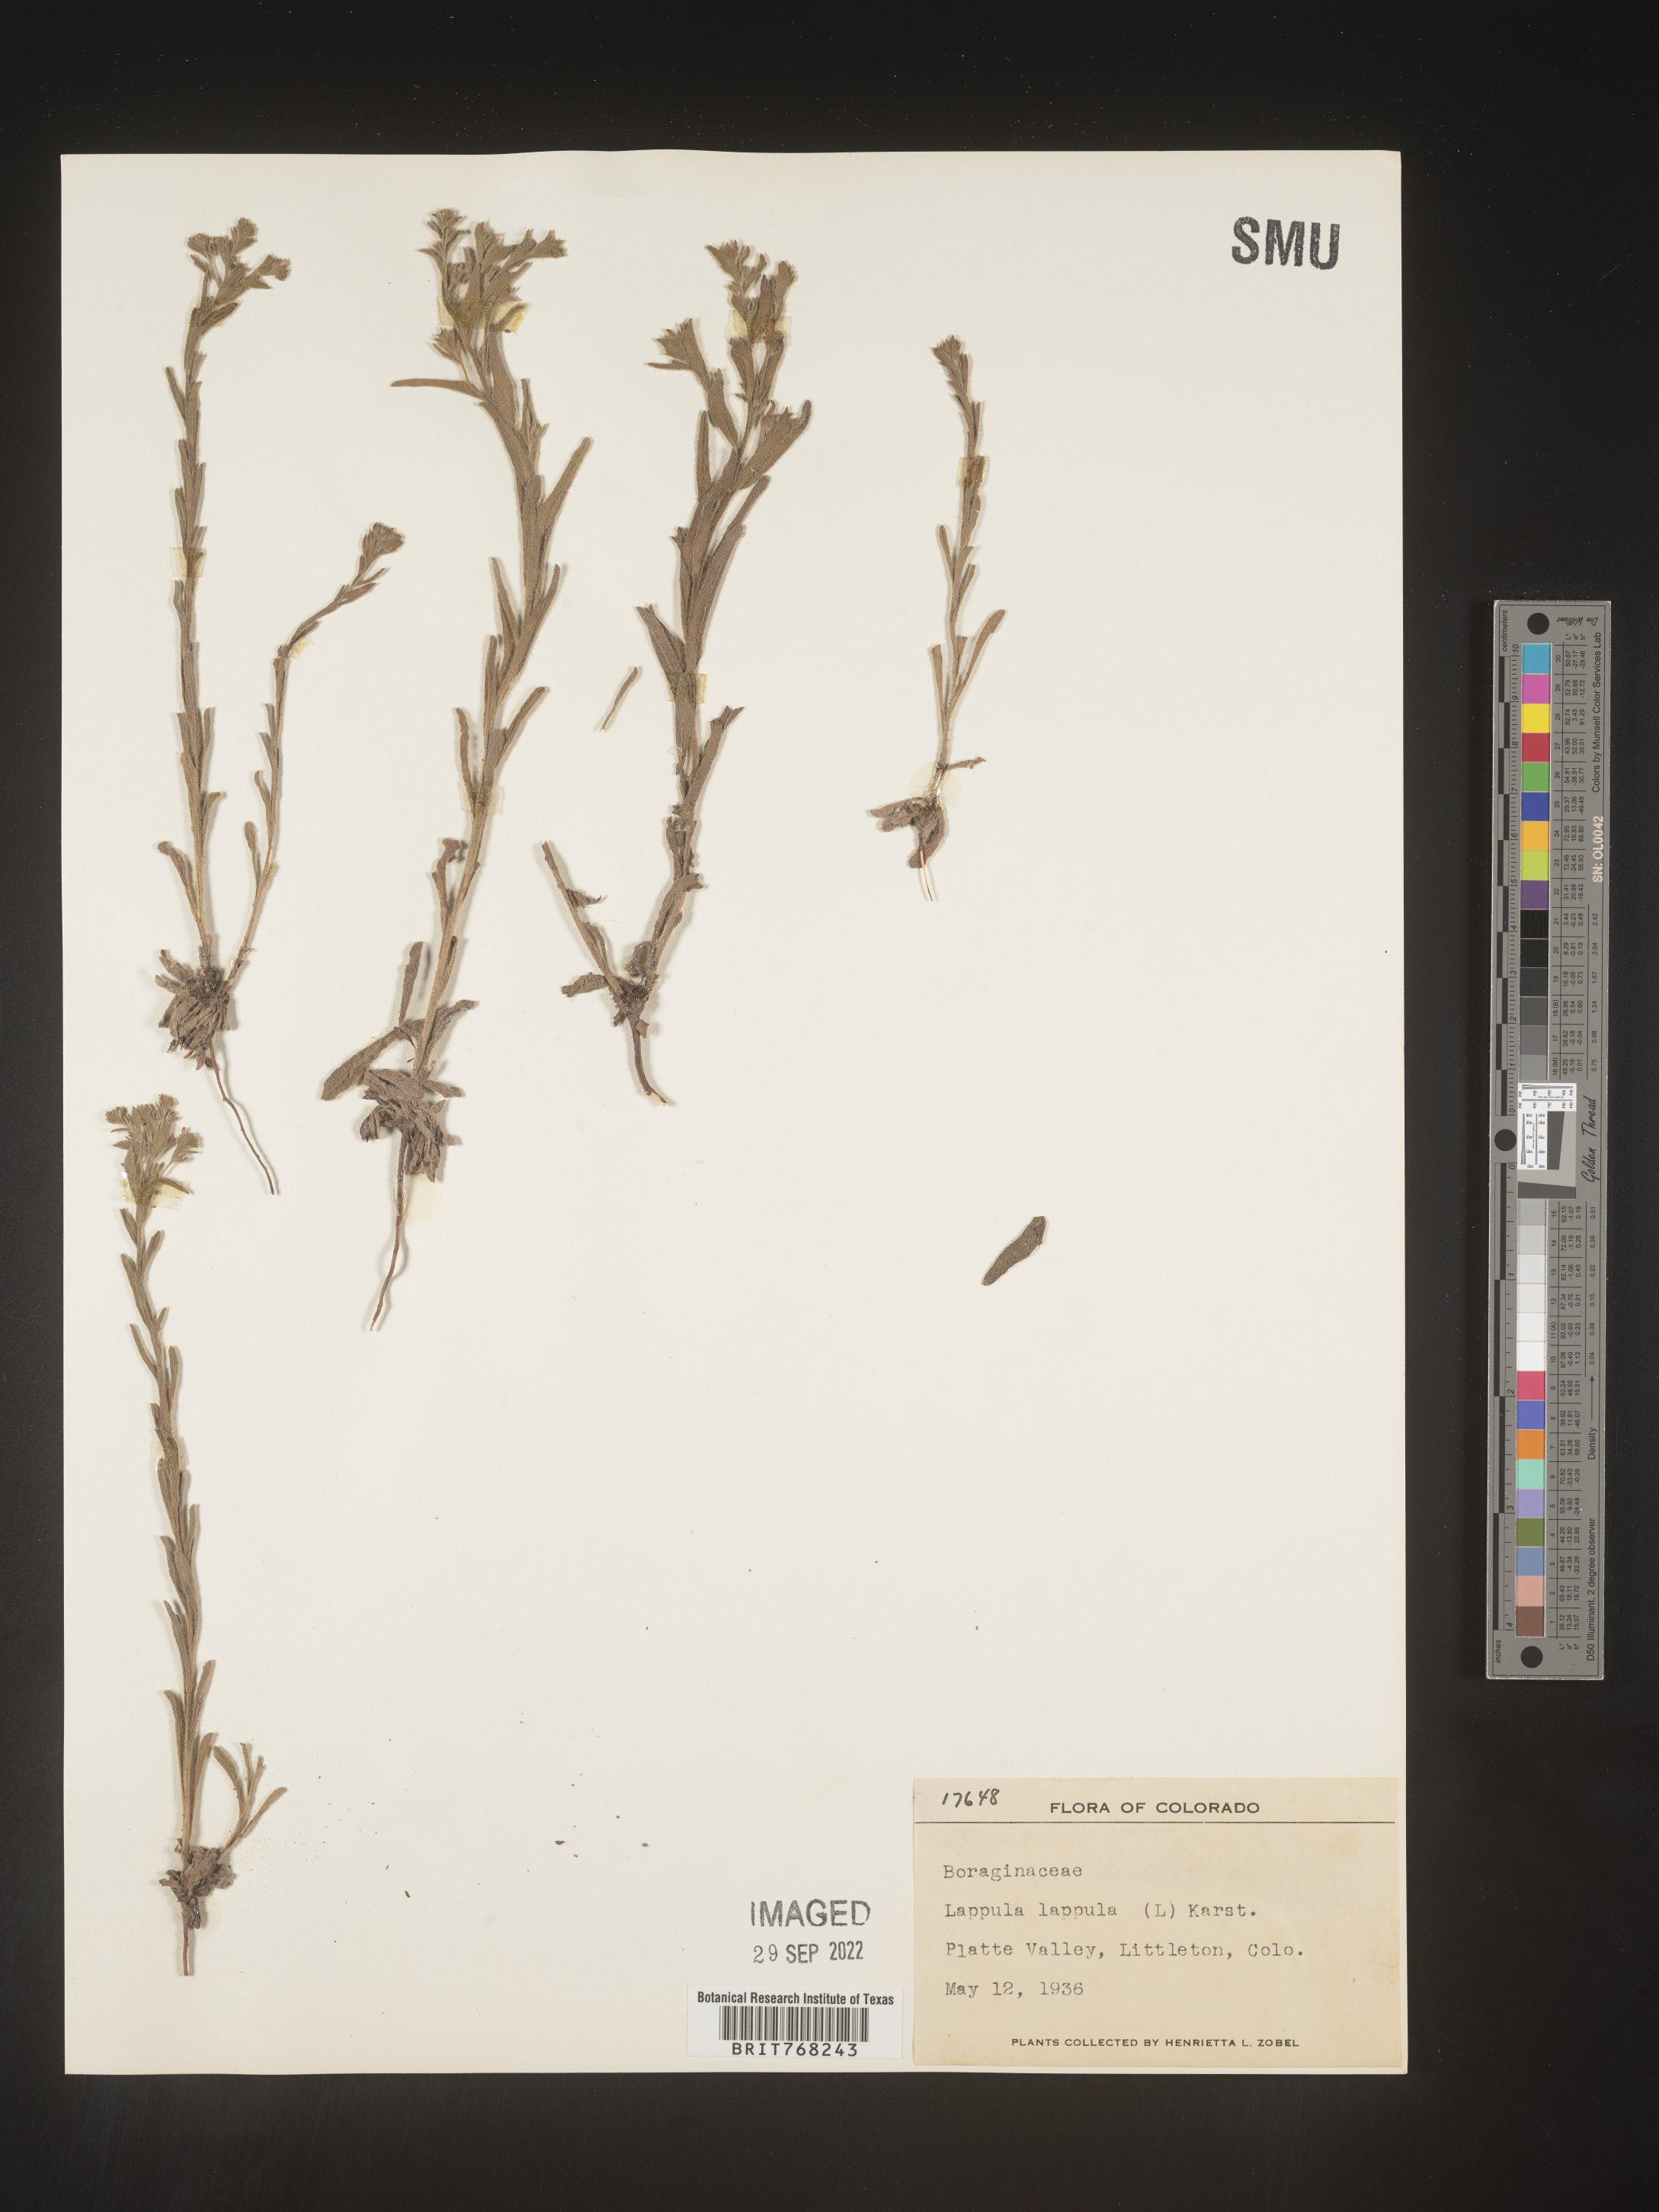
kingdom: Plantae
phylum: Tracheophyta
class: Magnoliopsida
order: Boraginales
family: Boraginaceae
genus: Lappula
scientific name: Lappula
